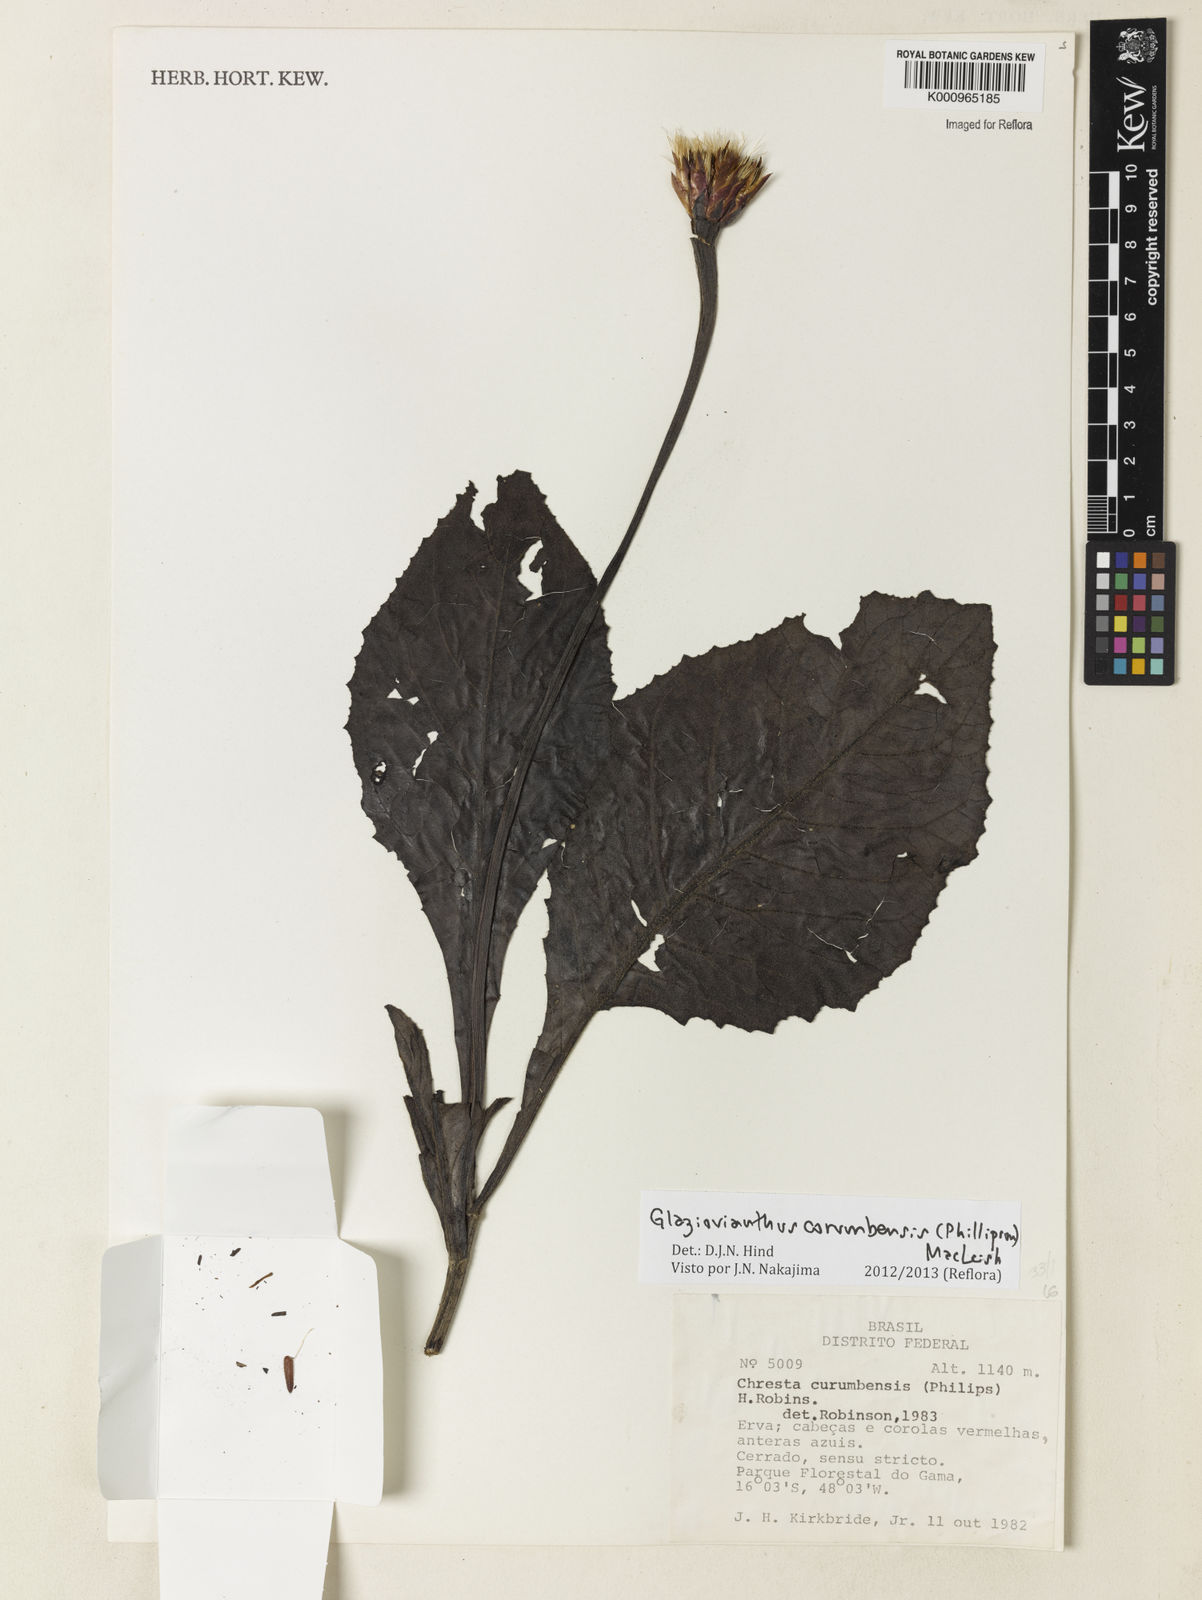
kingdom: Plantae
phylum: Tracheophyta
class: Magnoliopsida
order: Asterales
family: Asteraceae
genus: Chresta
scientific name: Chresta curumbensis
